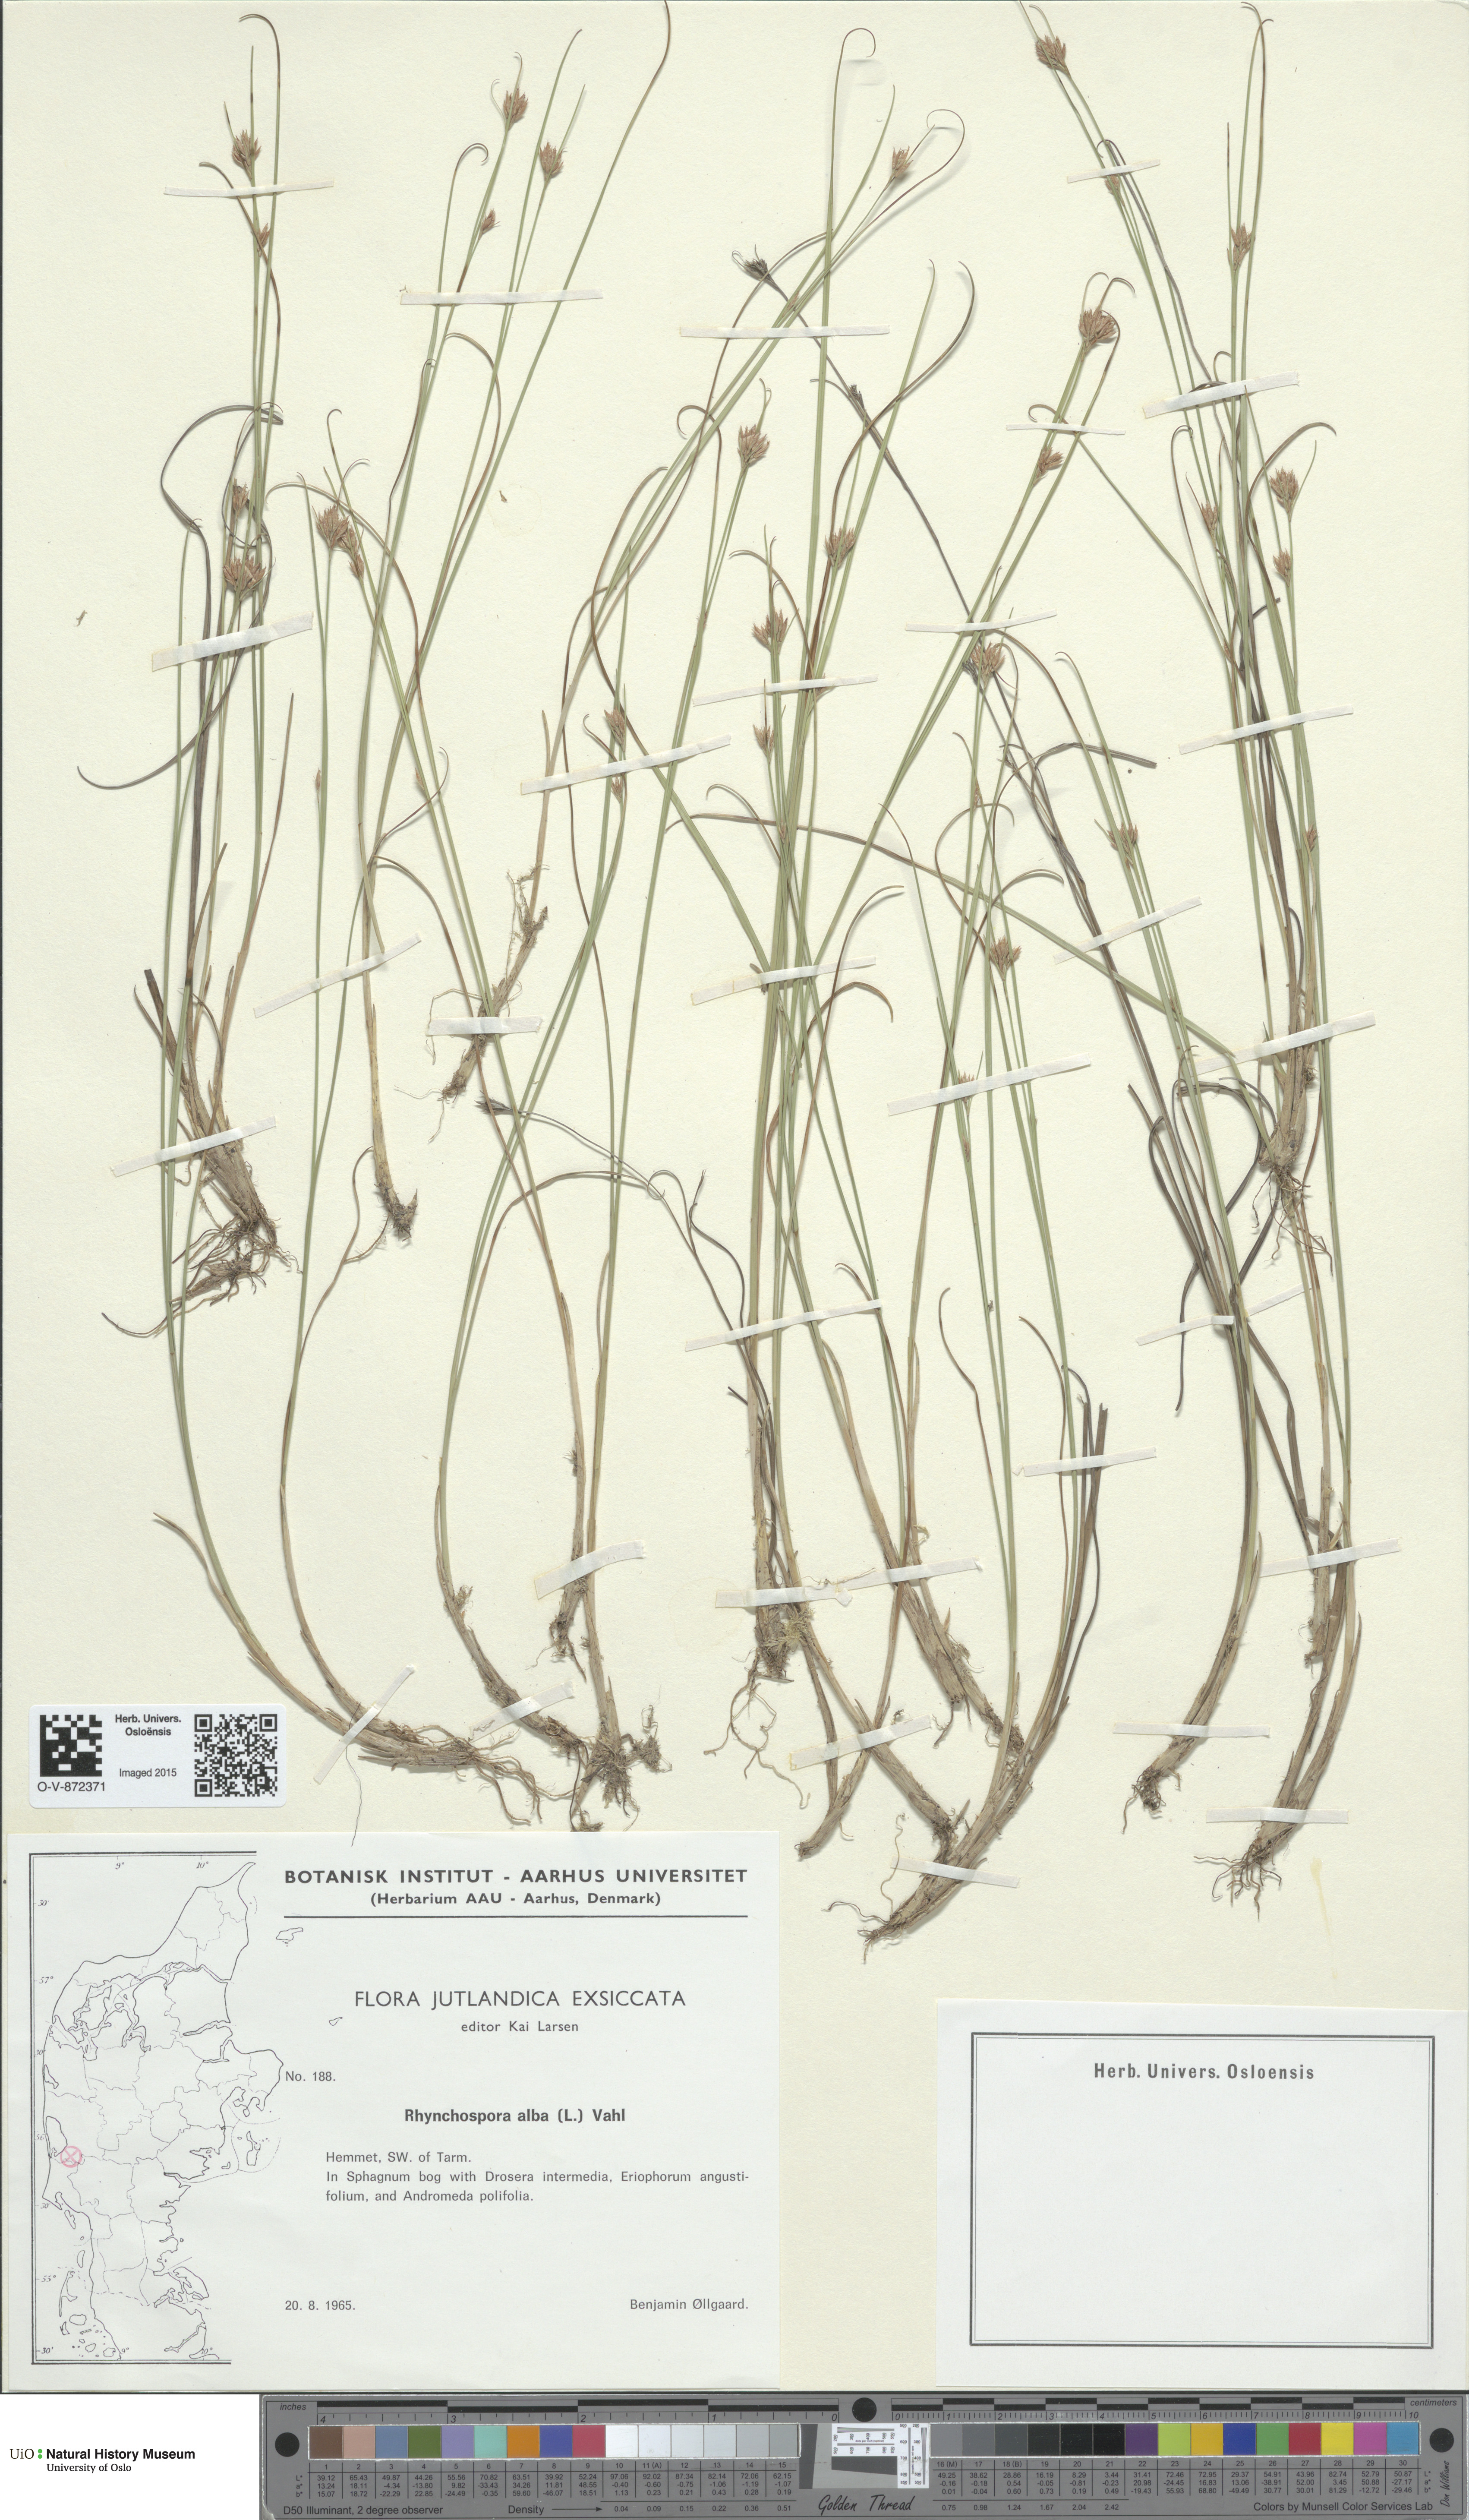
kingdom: Plantae
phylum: Tracheophyta
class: Liliopsida
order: Poales
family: Cyperaceae
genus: Rhynchospora
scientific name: Rhynchospora alba
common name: White beak-sedge
